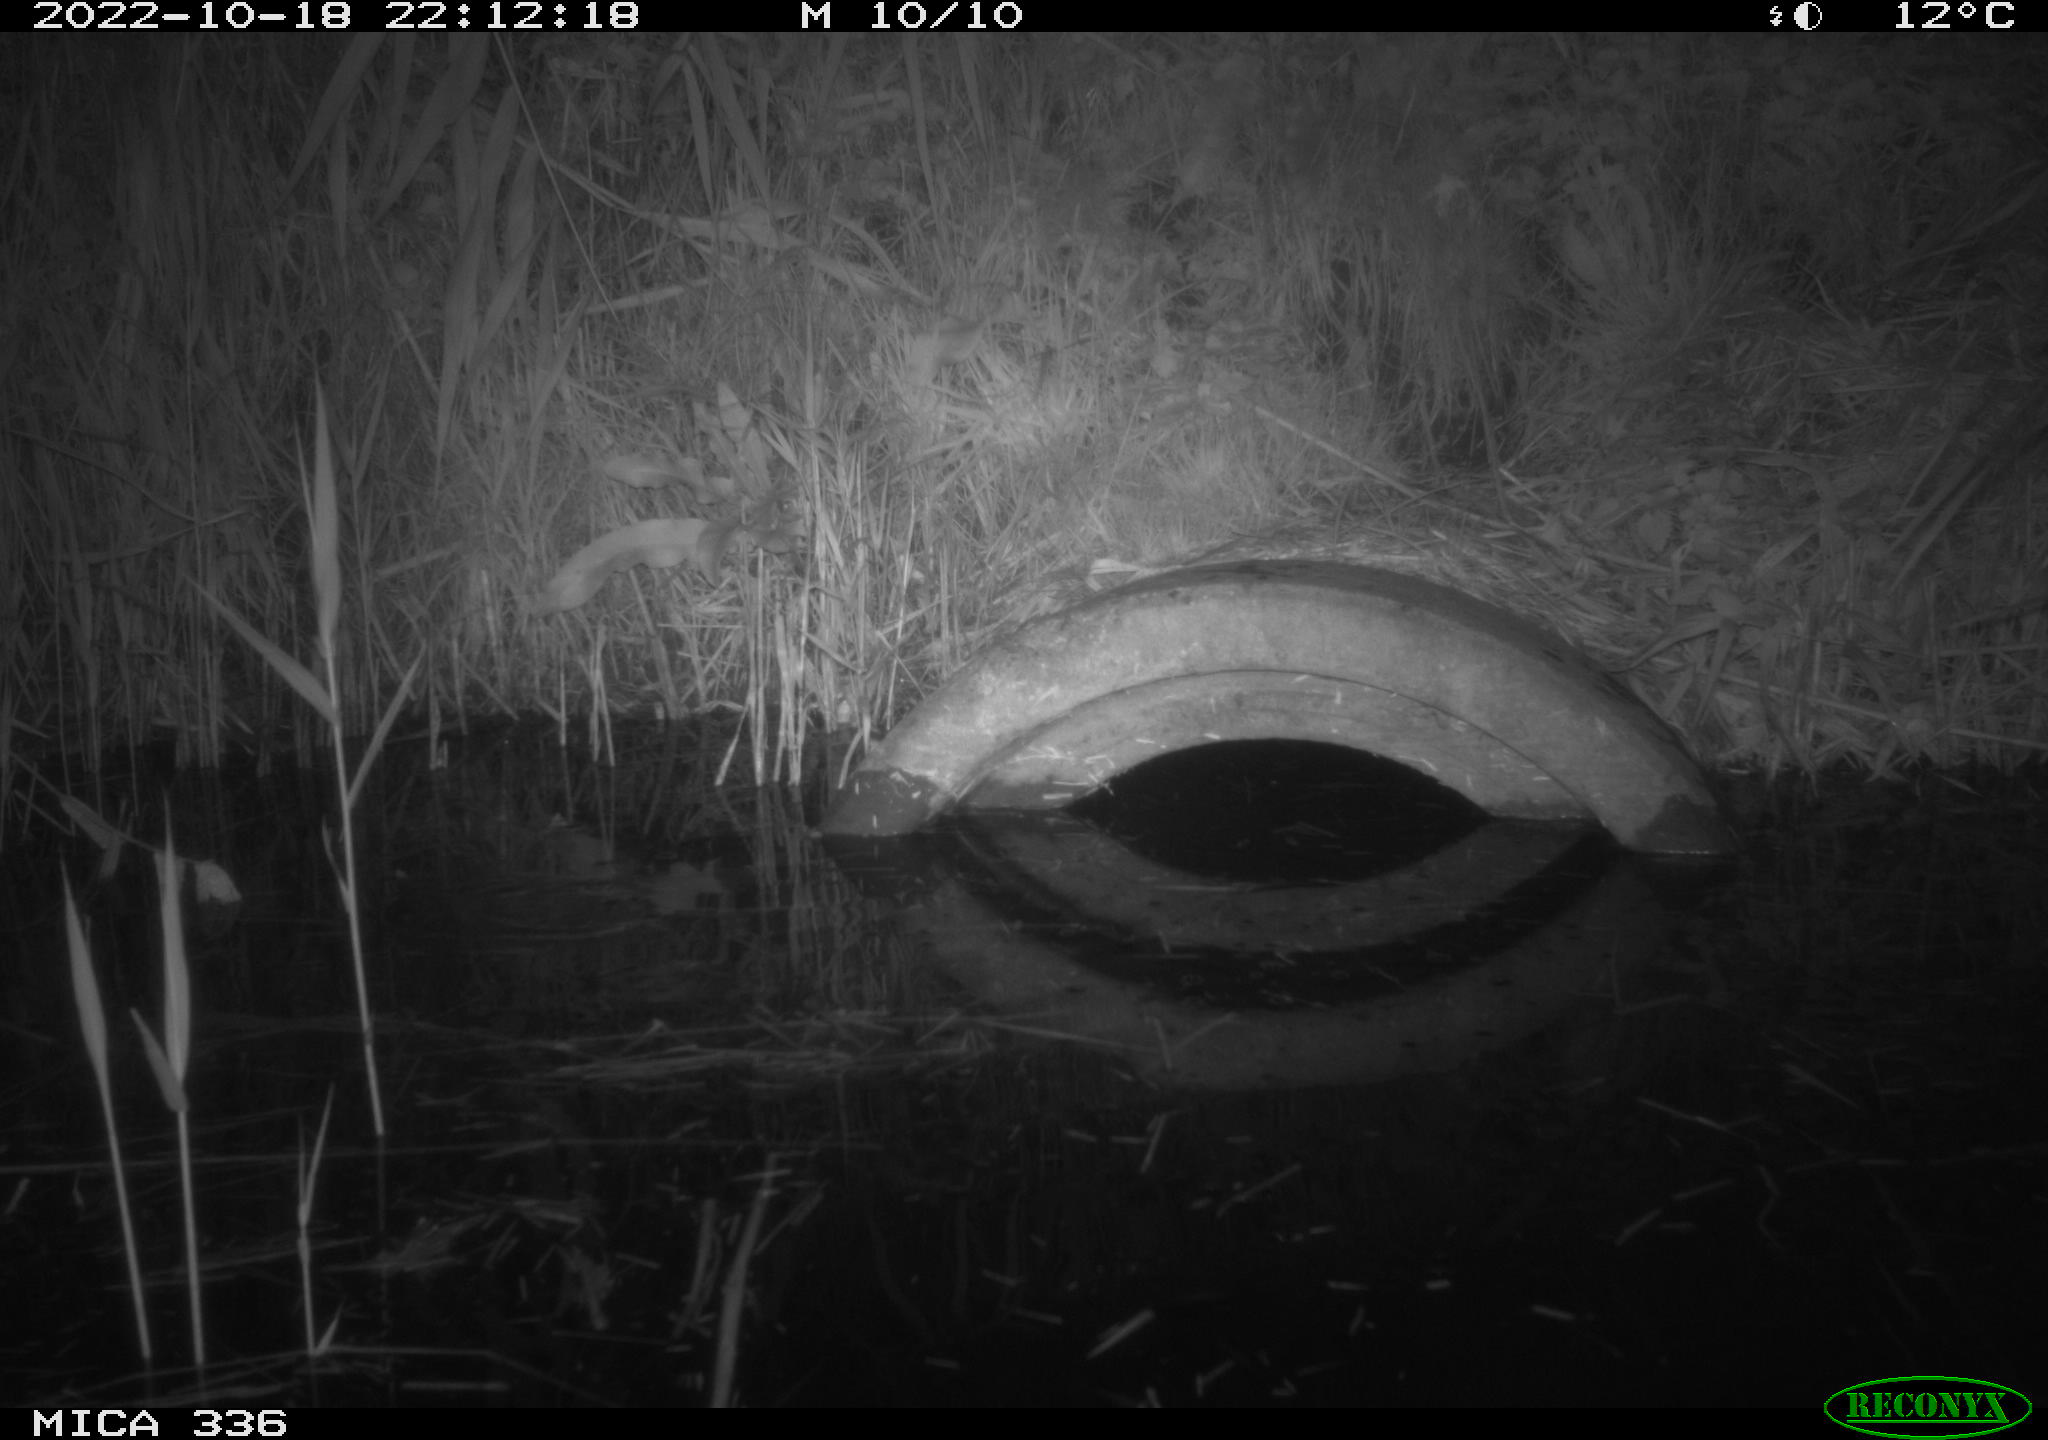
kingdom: Animalia
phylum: Chordata
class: Mammalia
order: Rodentia
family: Muridae
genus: Rattus
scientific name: Rattus norvegicus
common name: Brown rat
